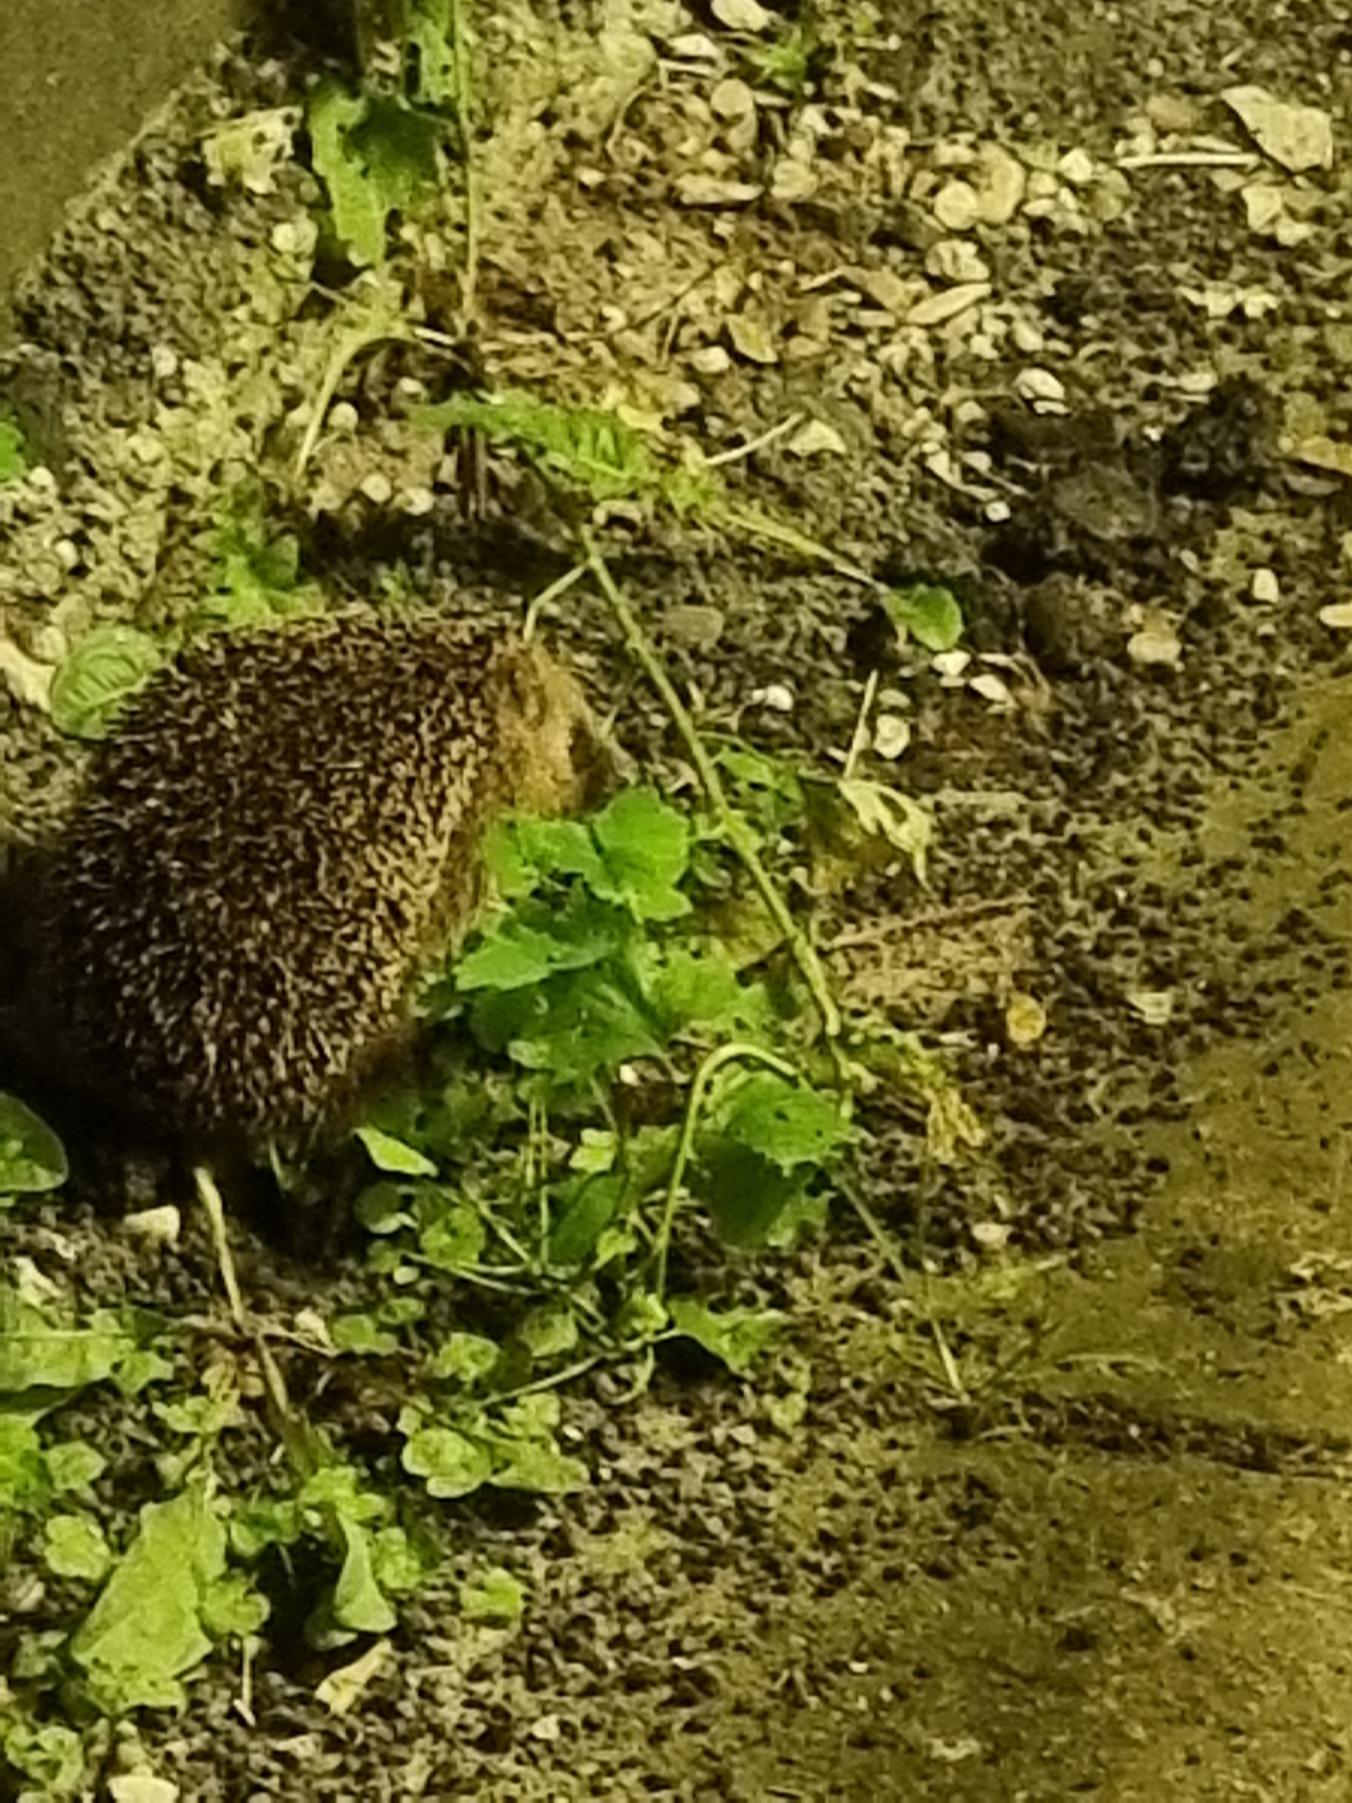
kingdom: Animalia
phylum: Chordata
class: Mammalia
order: Erinaceomorpha
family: Erinaceidae
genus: Erinaceus
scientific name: Erinaceus europaeus
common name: Pindsvin
